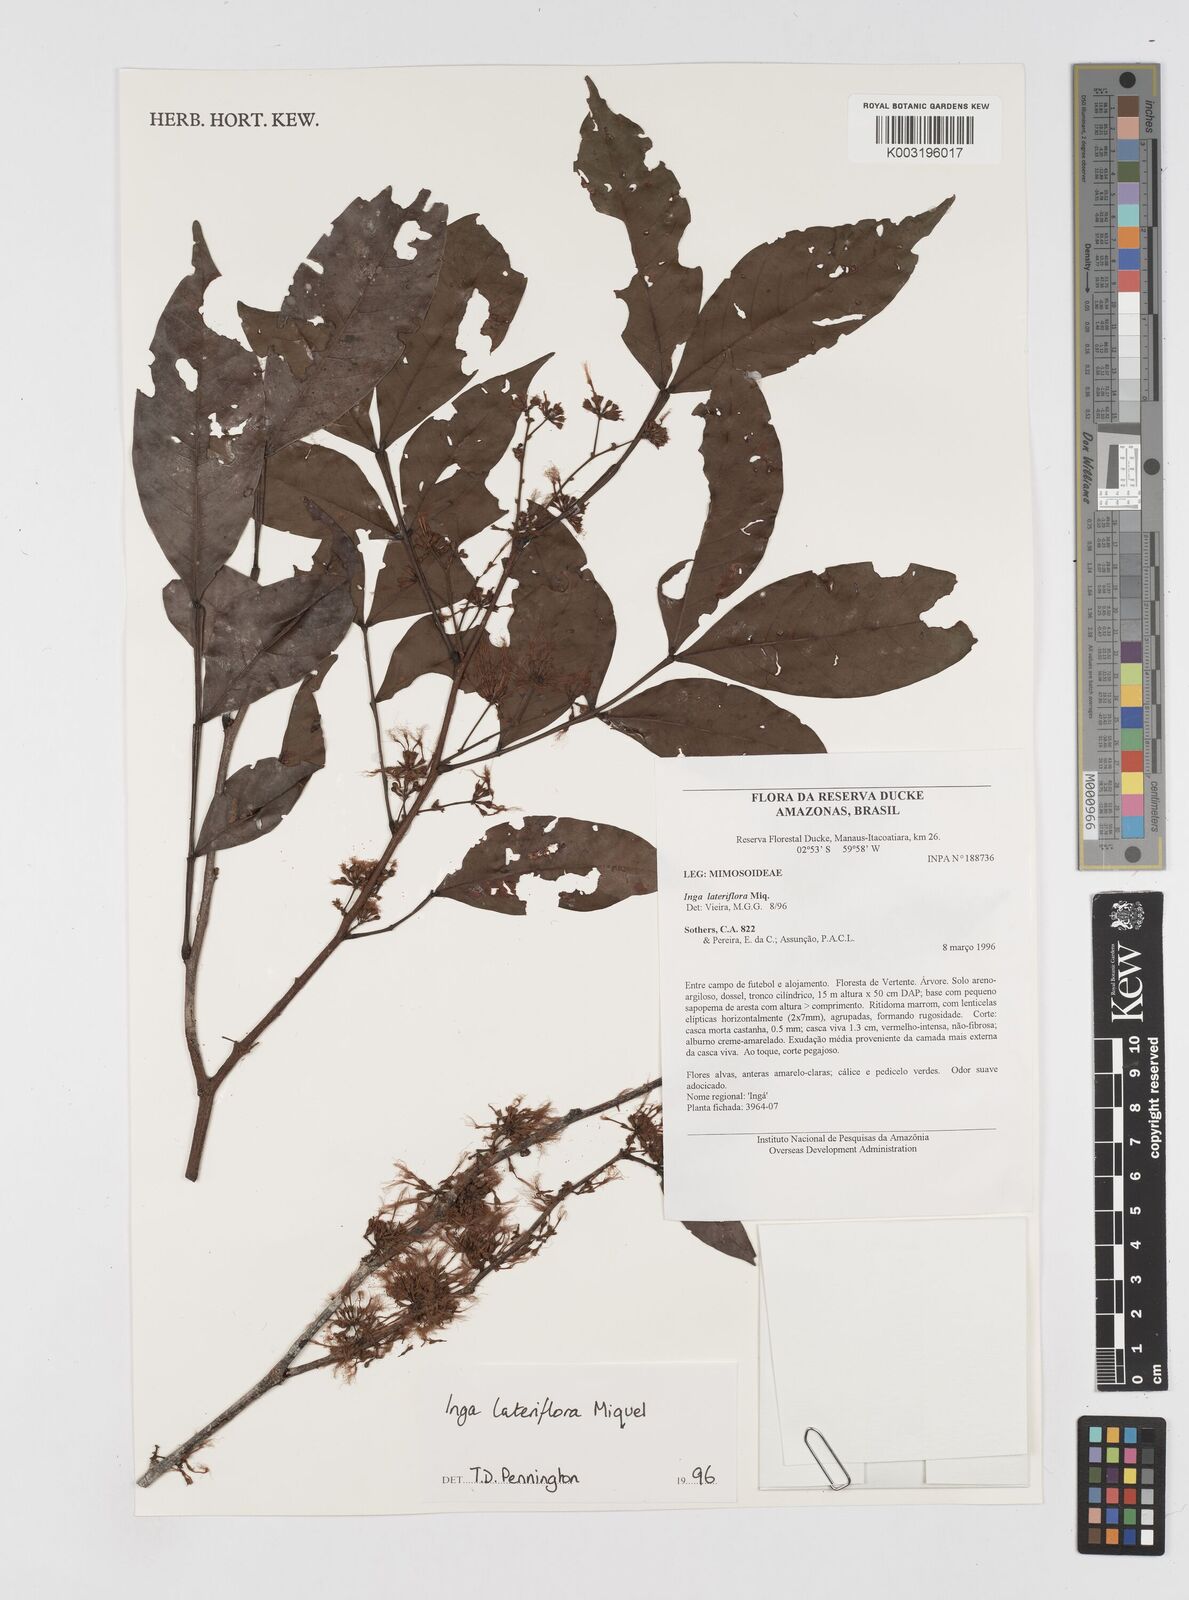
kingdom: Plantae
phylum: Tracheophyta
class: Magnoliopsida
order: Fabales
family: Fabaceae
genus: Inga
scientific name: Inga lateriflora
